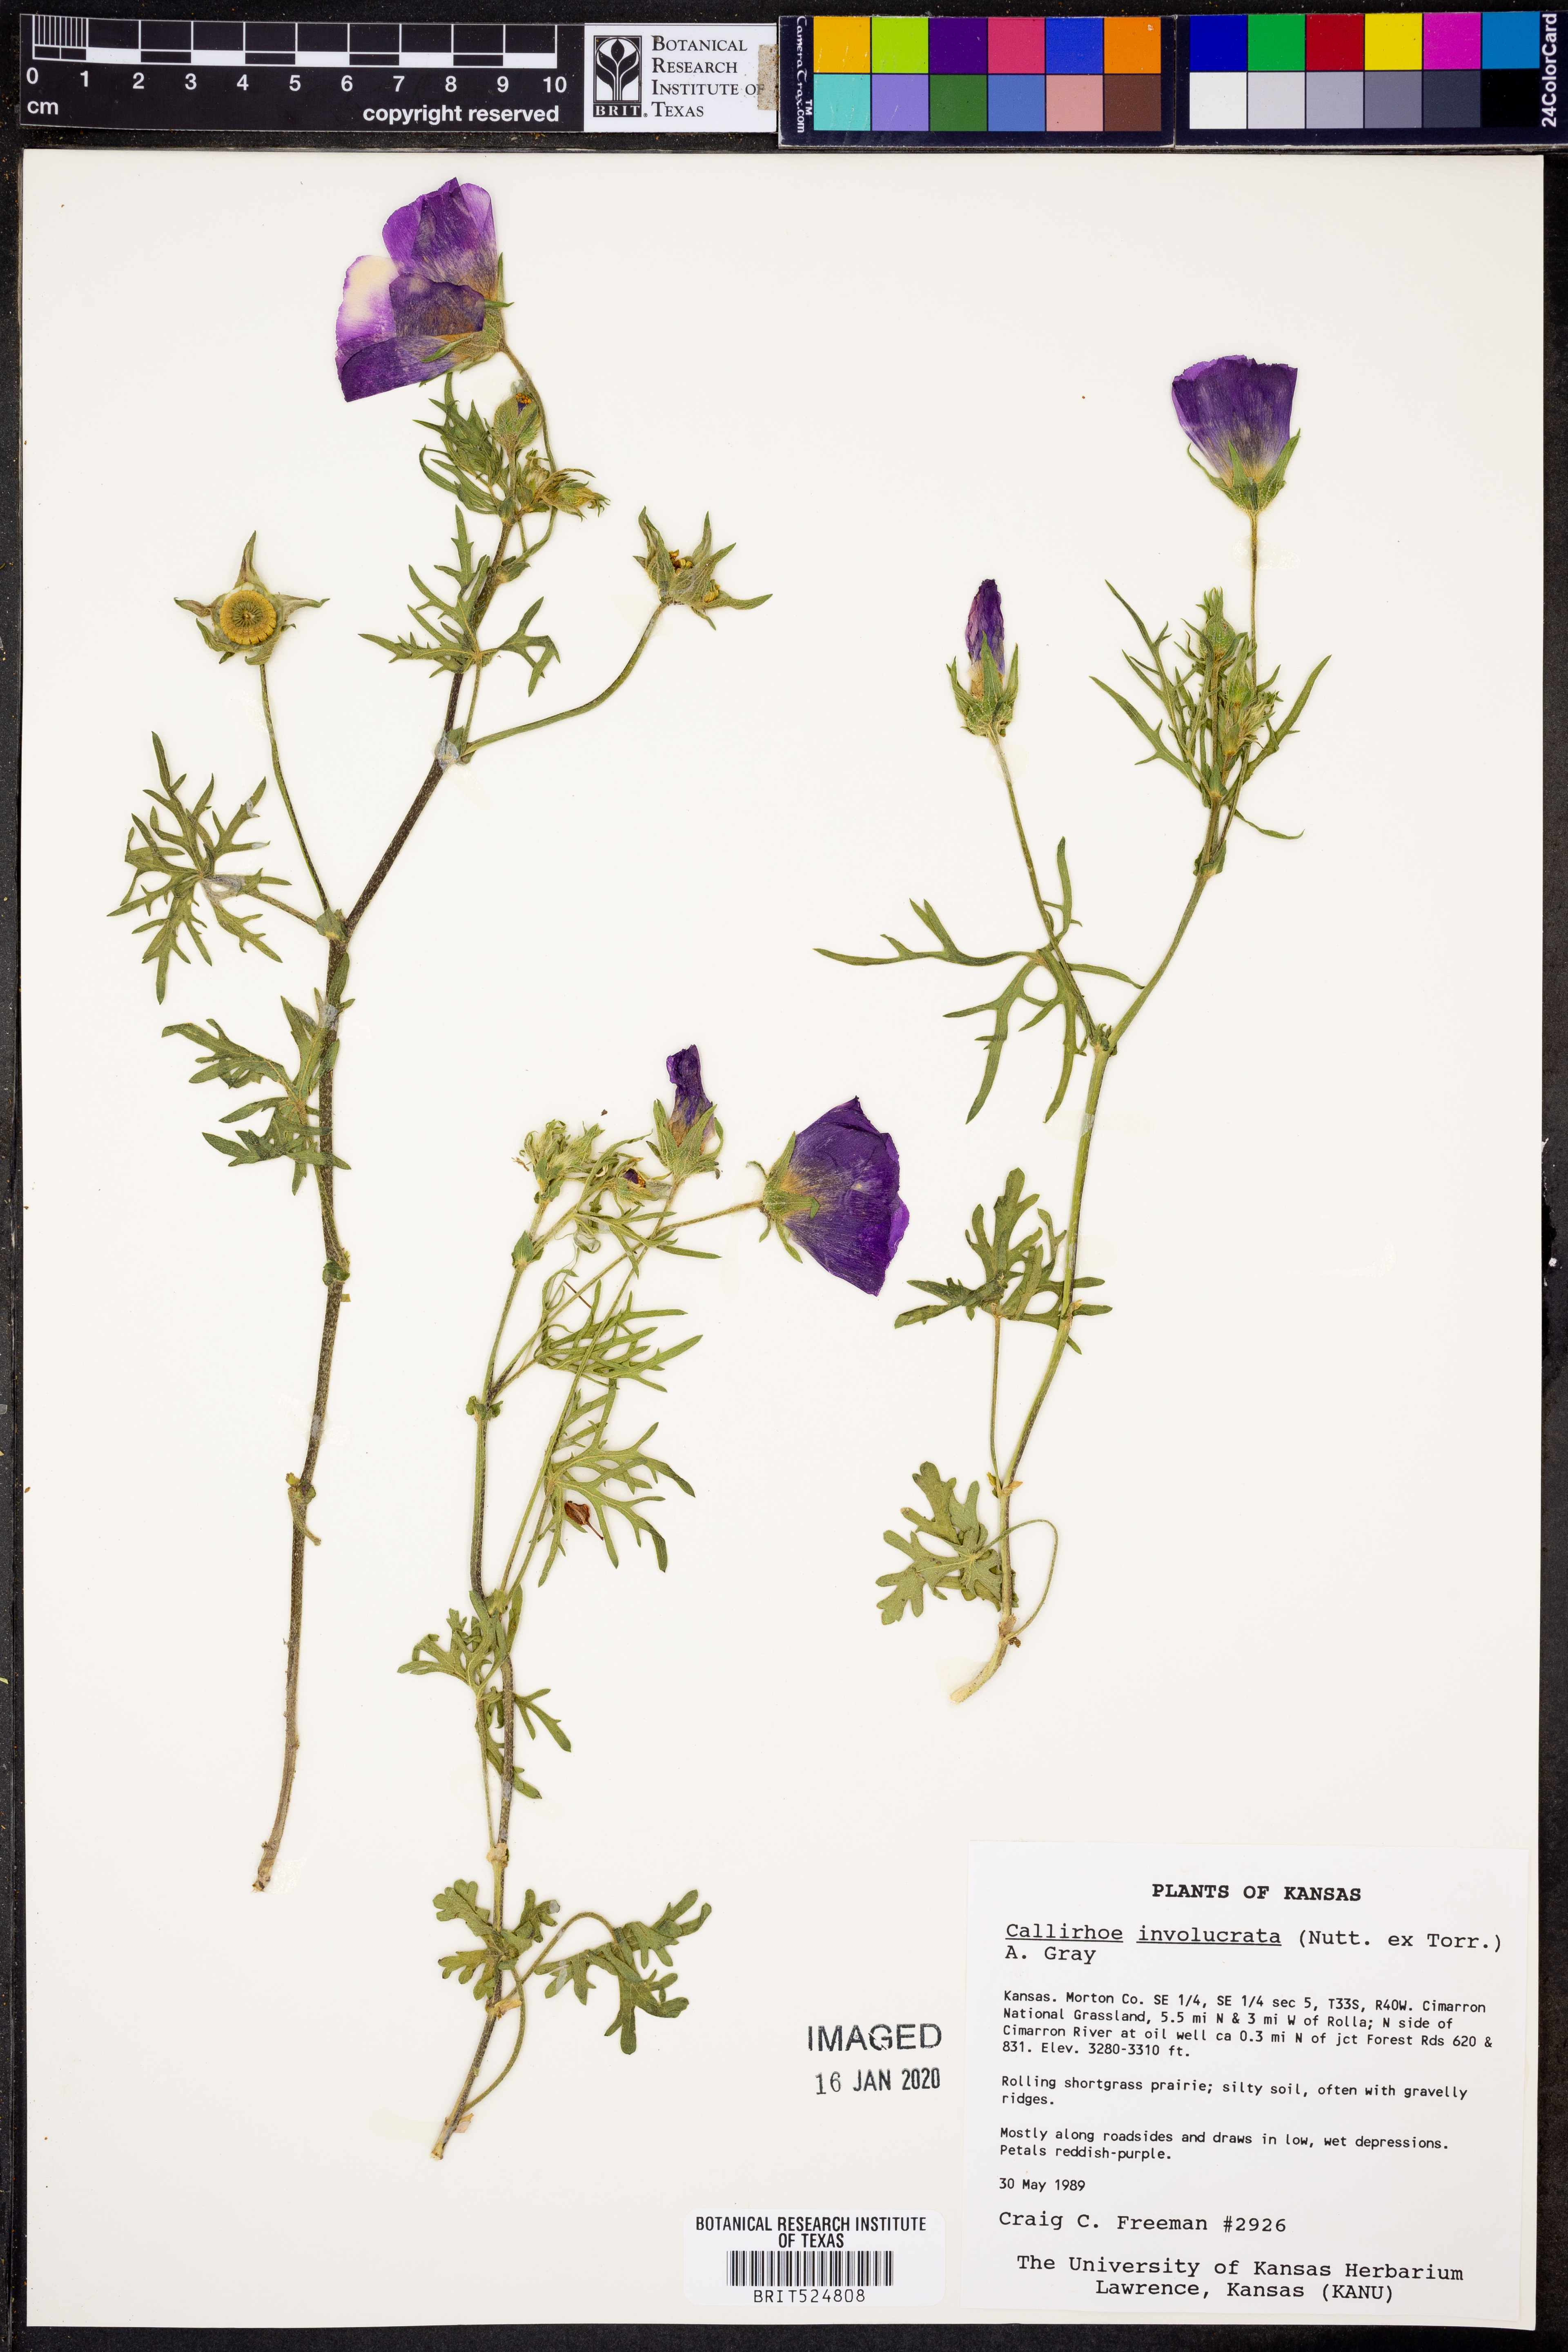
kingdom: Plantae
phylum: Tracheophyta
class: Magnoliopsida
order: Malvales
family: Malvaceae
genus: Callirhoe
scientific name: Callirhoe involucrata
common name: Purple poppy-mallow
